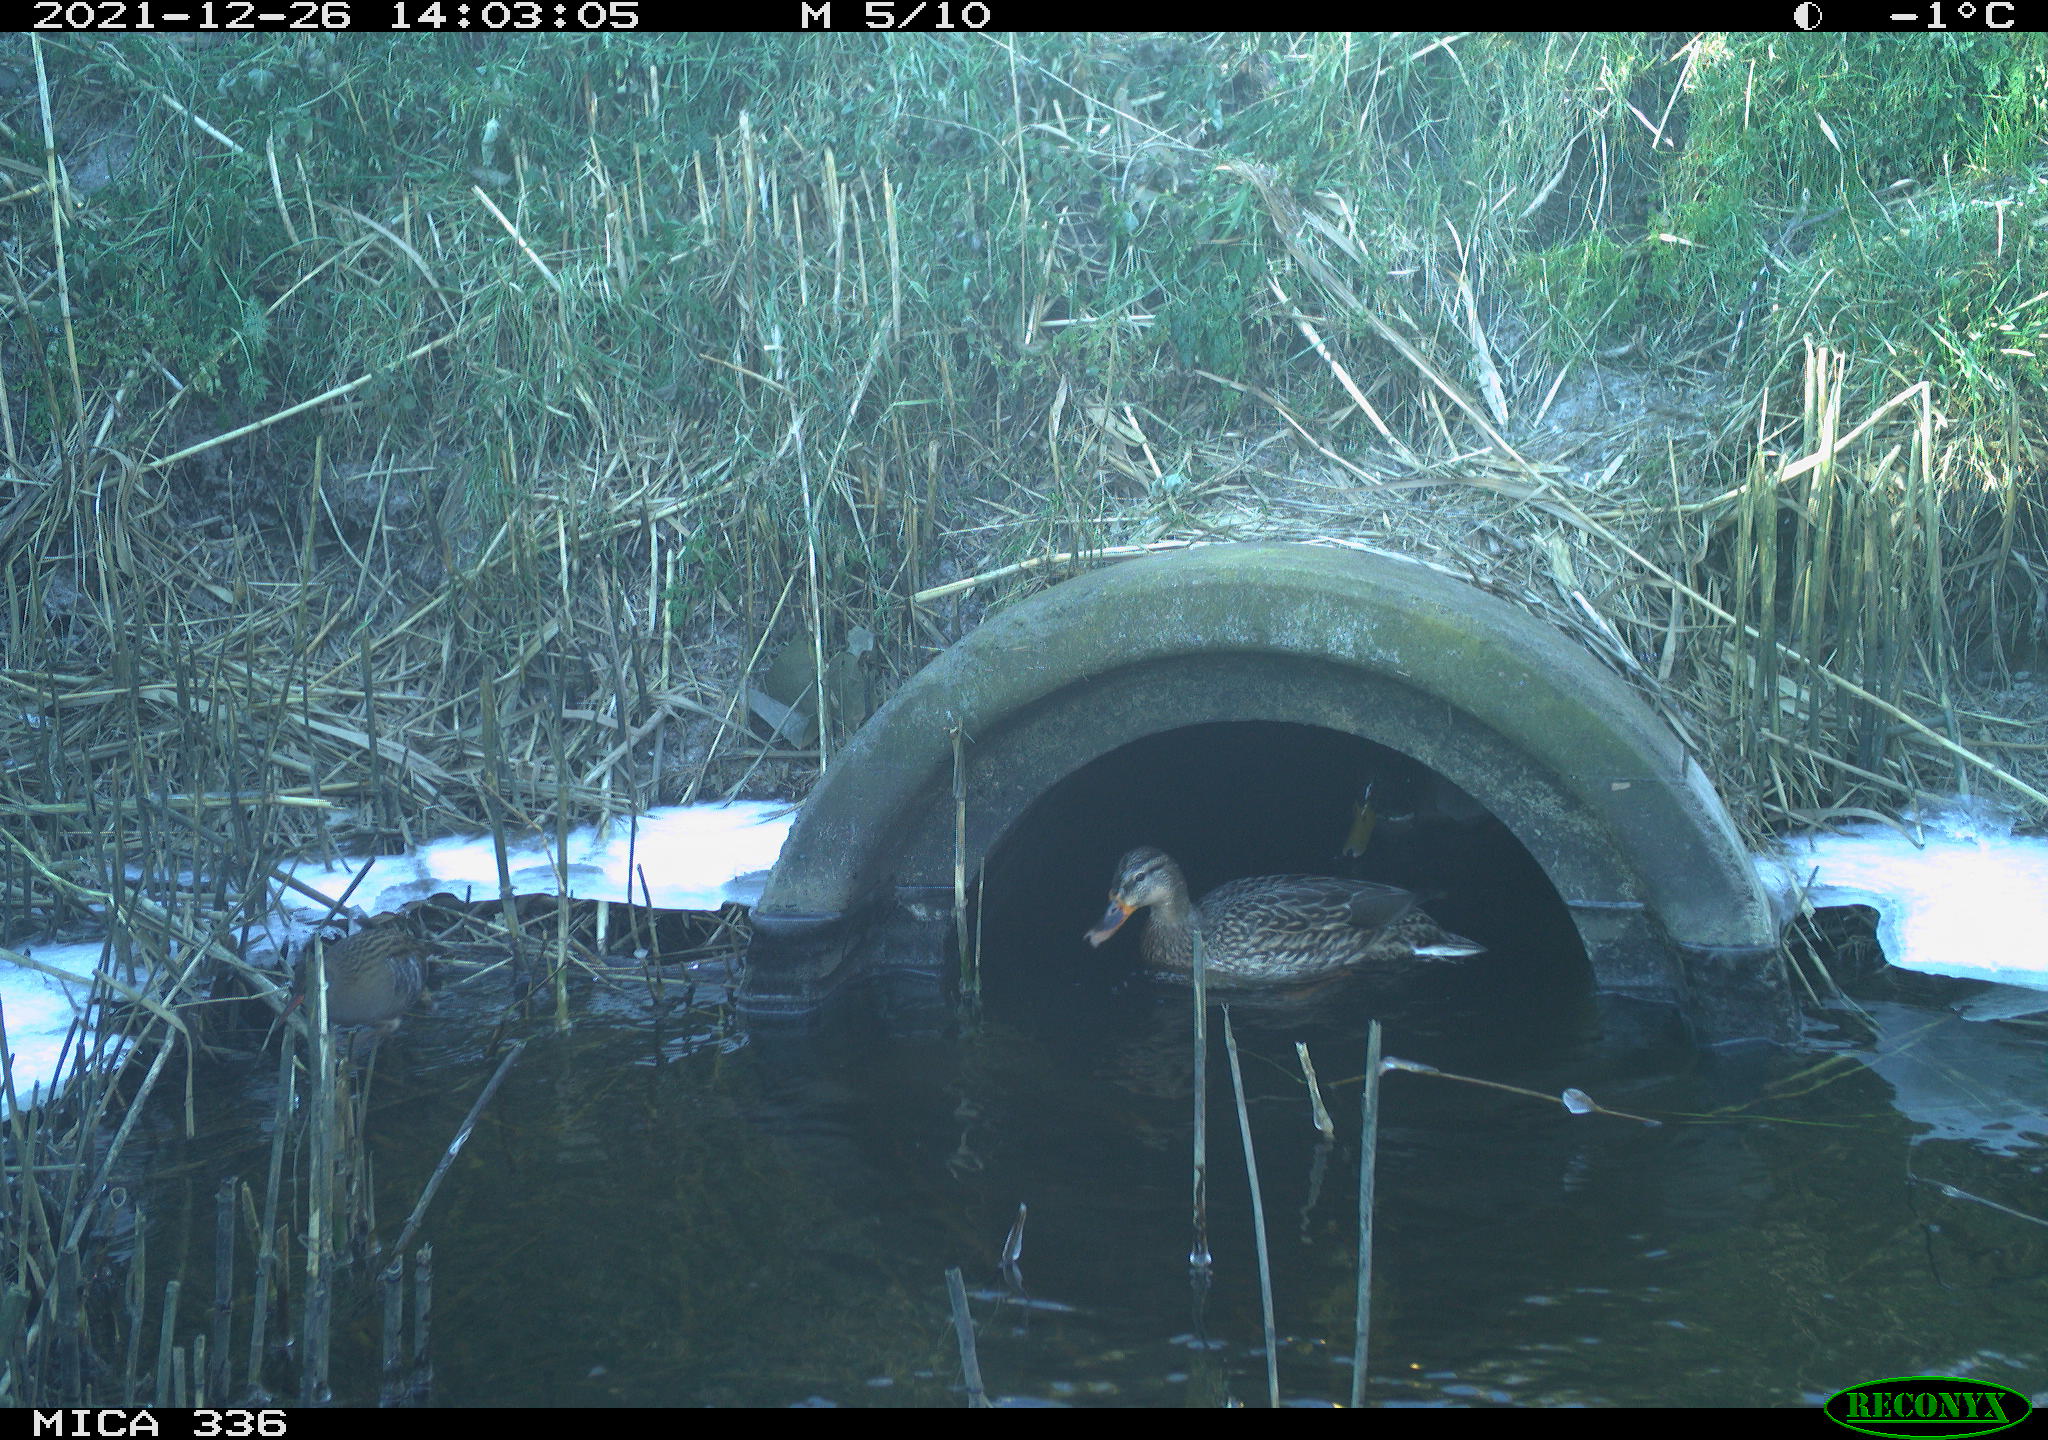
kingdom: Animalia
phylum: Chordata
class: Aves
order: Anseriformes
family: Anatidae
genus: Anas
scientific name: Anas platyrhynchos
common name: Mallard
